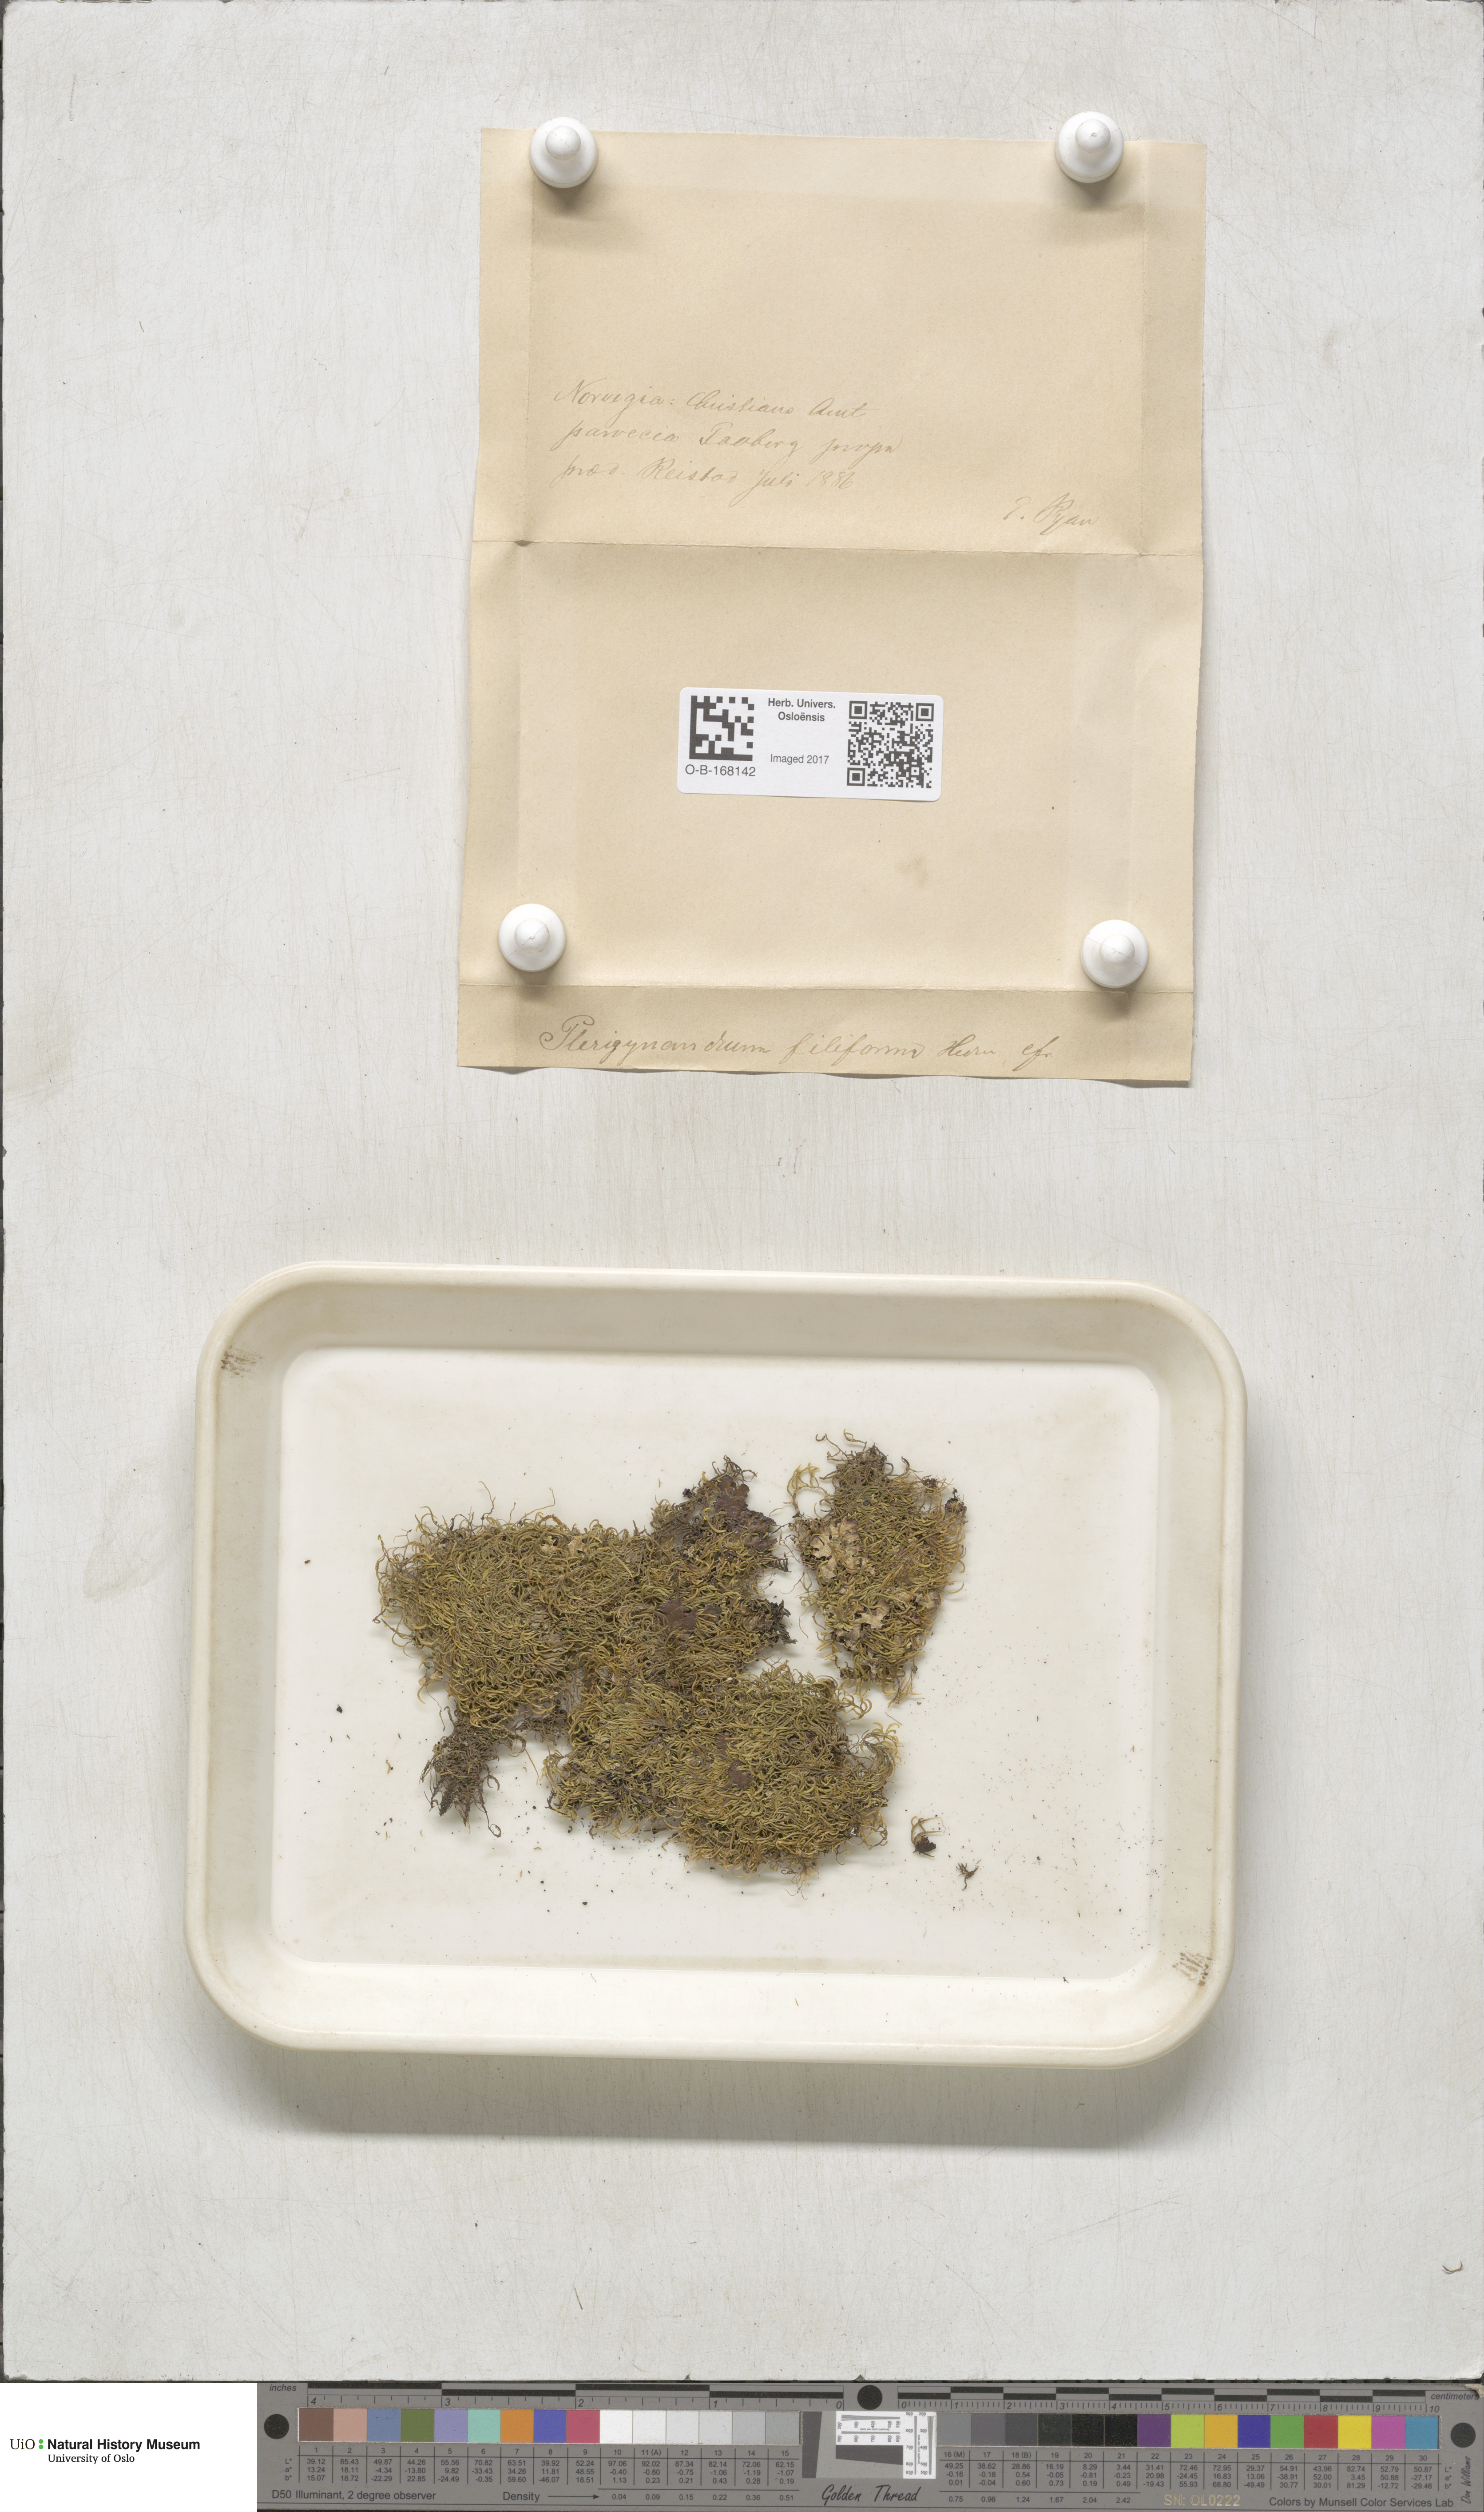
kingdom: Plantae
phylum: Bryophyta
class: Bryopsida
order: Hypnales
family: Pterigynandraceae
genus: Pterigynandrum
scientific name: Pterigynandrum filiforme
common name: Capillary wing moss
